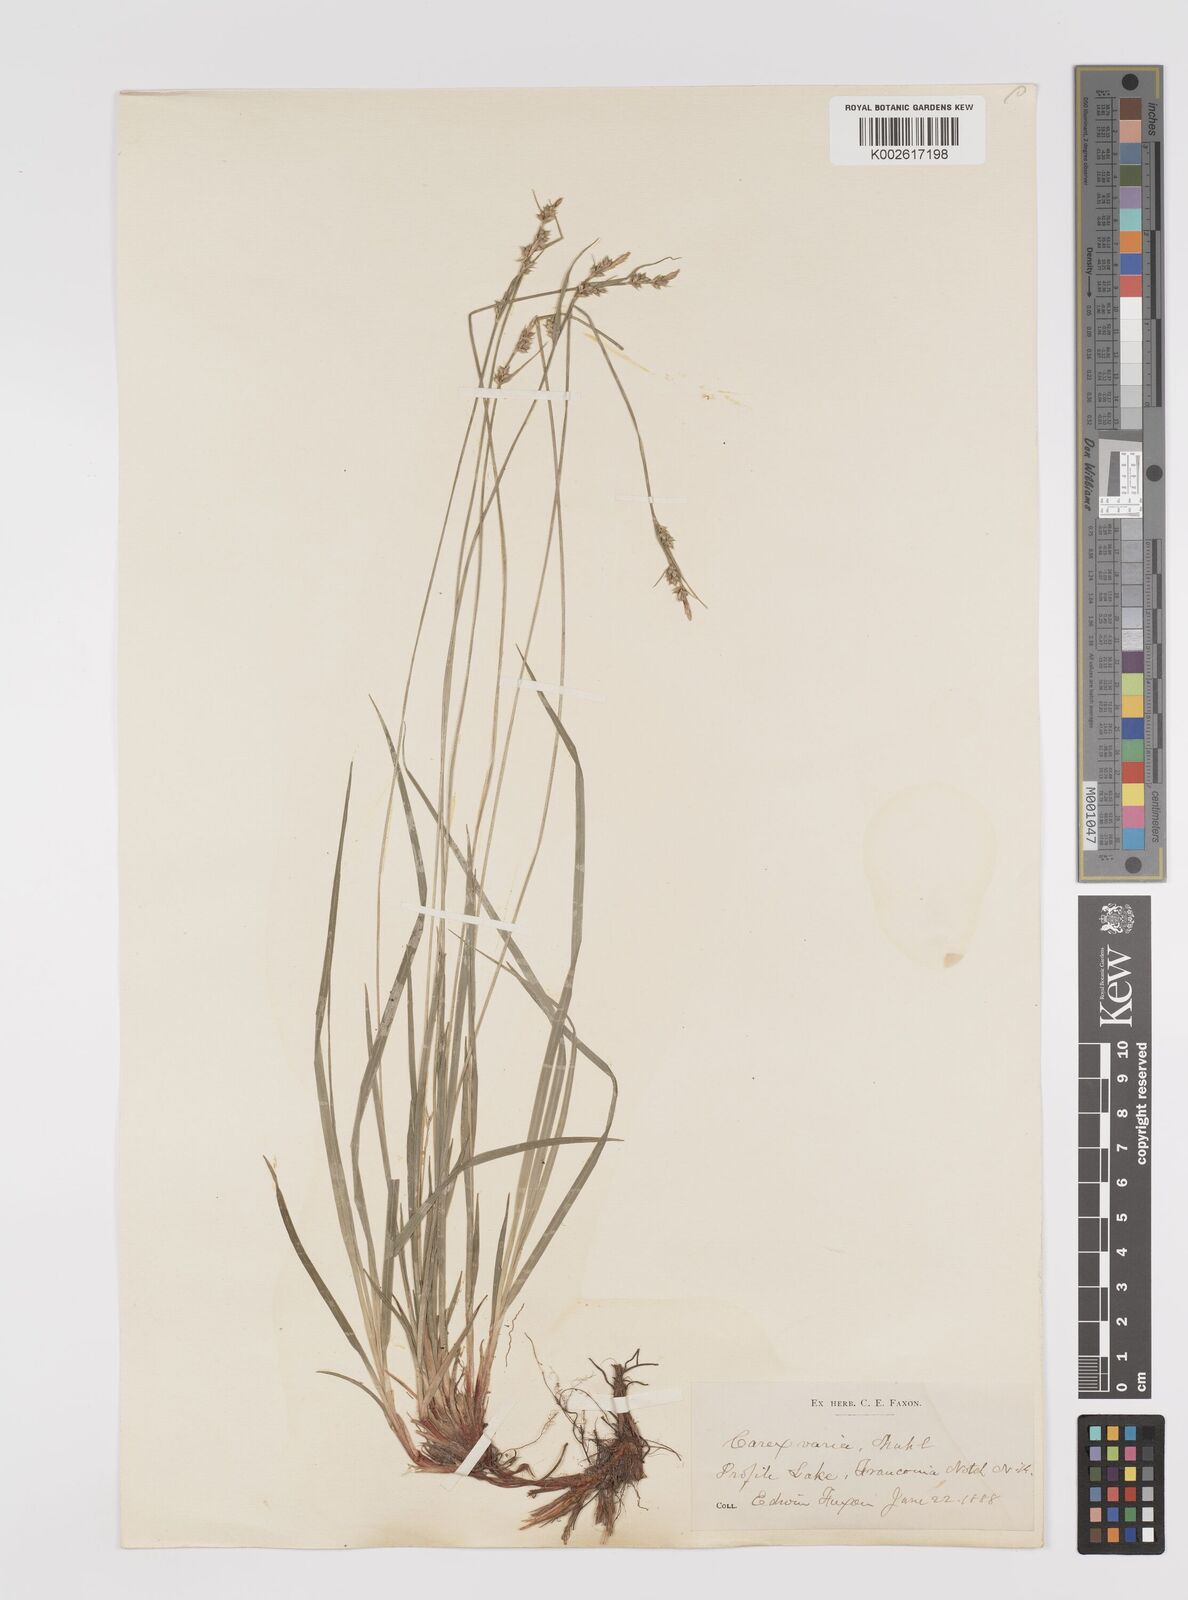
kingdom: Plantae
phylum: Tracheophyta
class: Liliopsida
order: Poales
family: Cyperaceae
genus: Carex
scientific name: Carex albicans
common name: Bellow-beaked sedge
